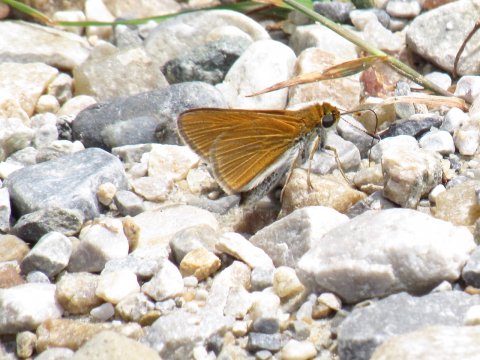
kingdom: Animalia
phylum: Arthropoda
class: Insecta
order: Lepidoptera
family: Hesperiidae
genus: Euphyes
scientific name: Euphyes bimacula
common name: Two-spotted Skipper
